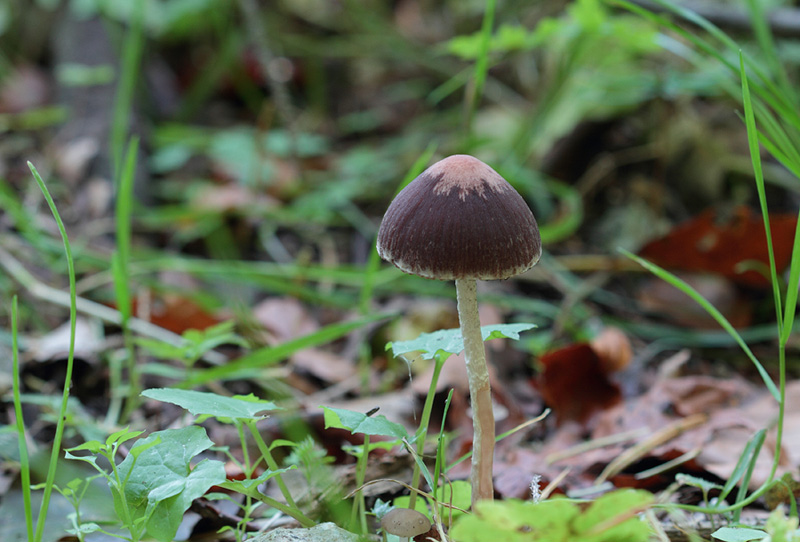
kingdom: Fungi
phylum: Basidiomycota
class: Agaricomycetes
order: Agaricales
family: Psathyrellaceae
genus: Psathyrella
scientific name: Psathyrella bipellis
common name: vinrød mørkhat
